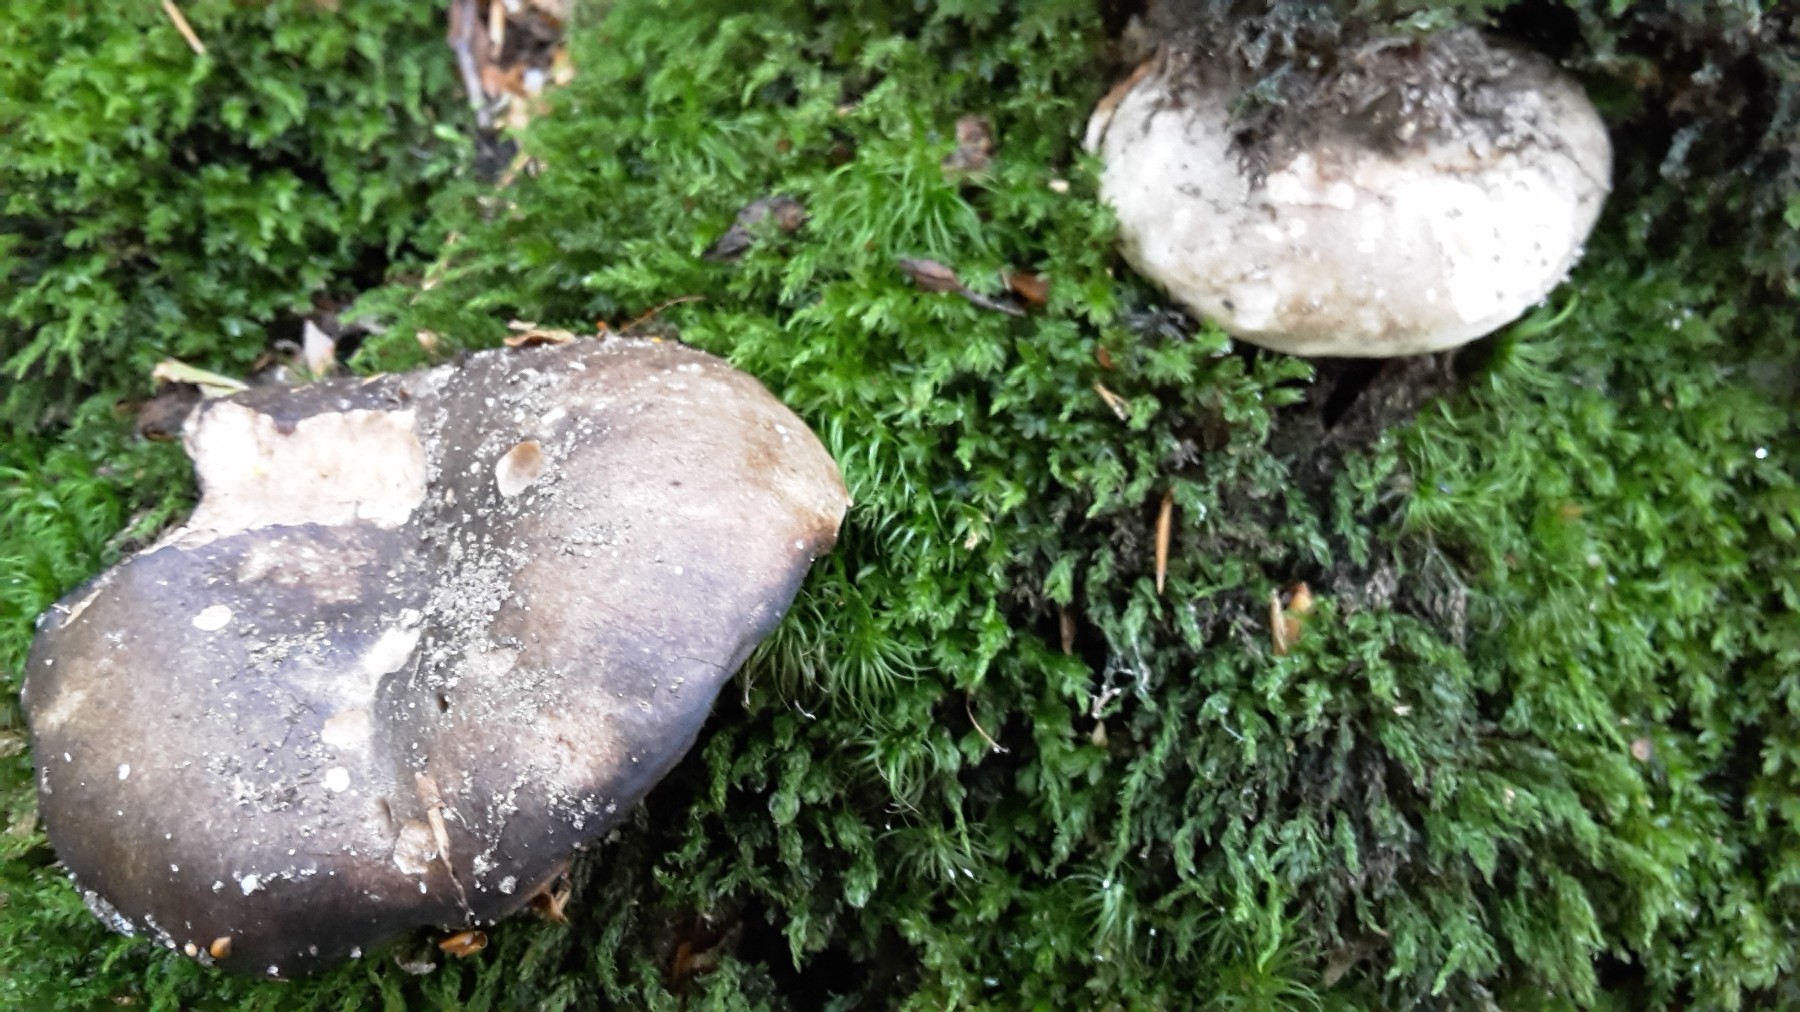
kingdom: Fungi
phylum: Basidiomycota
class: Agaricomycetes
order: Russulales
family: Russulaceae
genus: Russula
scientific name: Russula adusta
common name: sværtende skørhat
